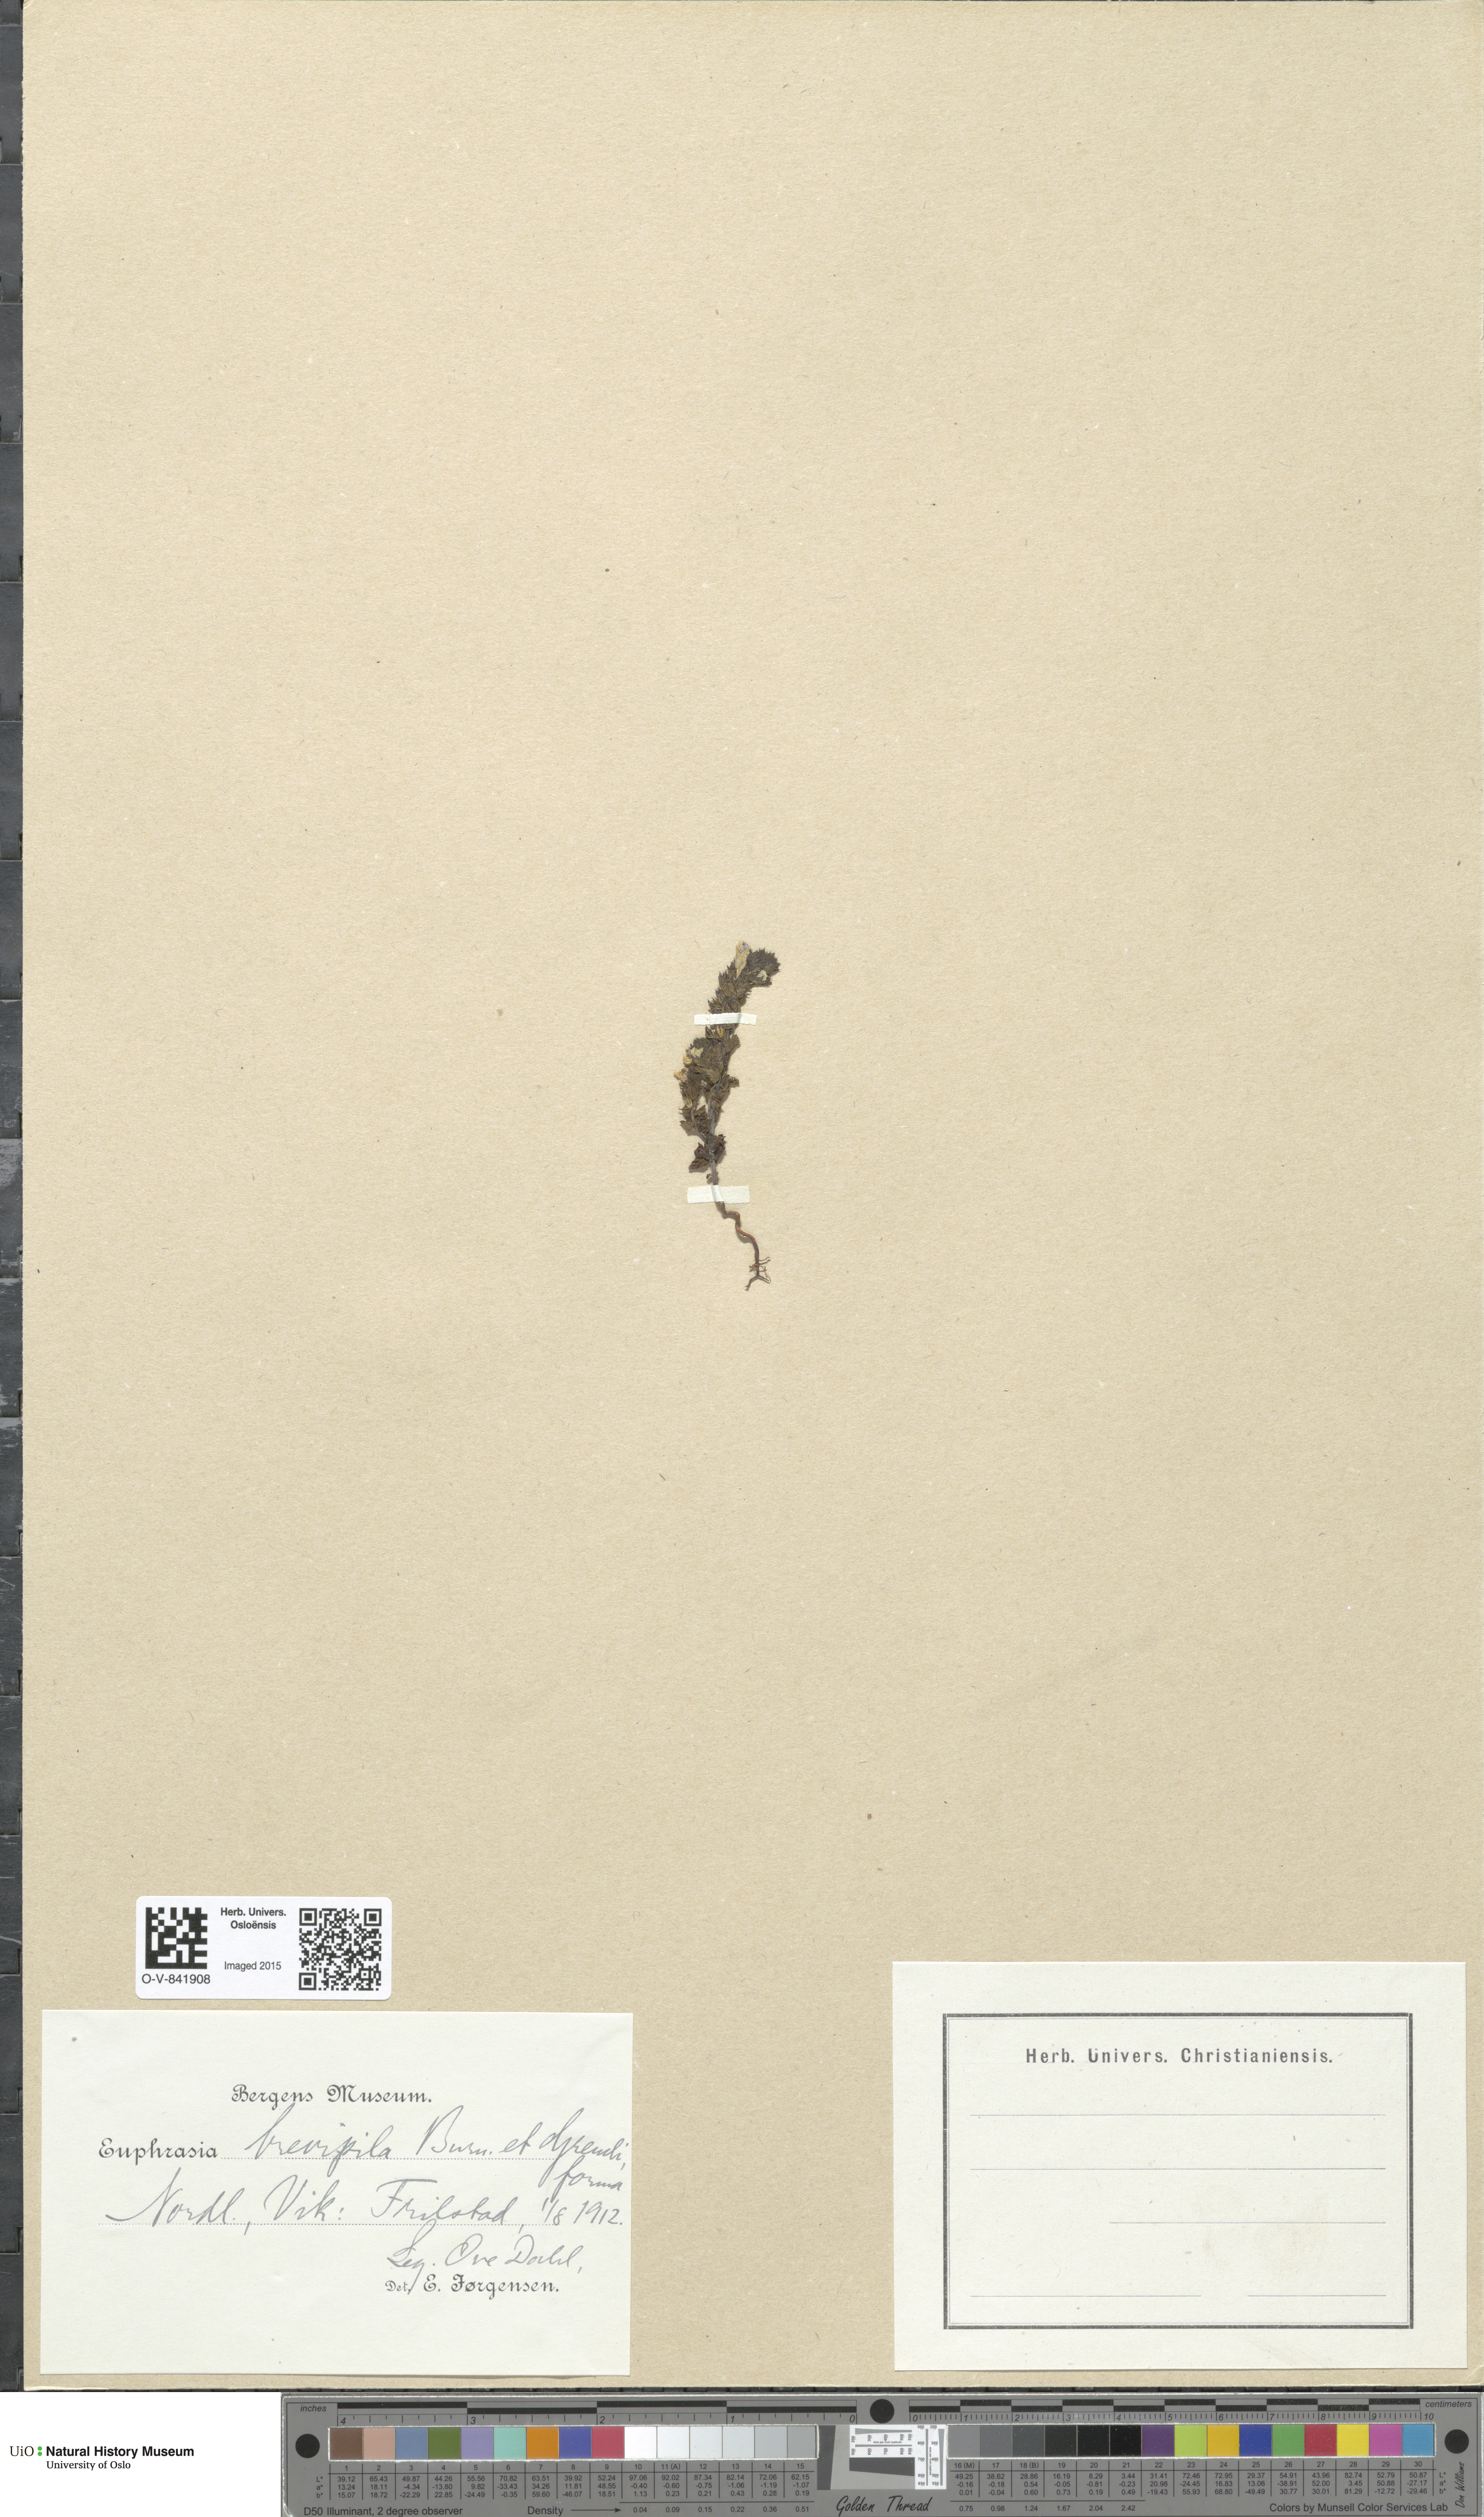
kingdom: Plantae
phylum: Tracheophyta
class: Magnoliopsida
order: Lamiales
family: Orobanchaceae
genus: Euphrasia
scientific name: Euphrasia vernalis
